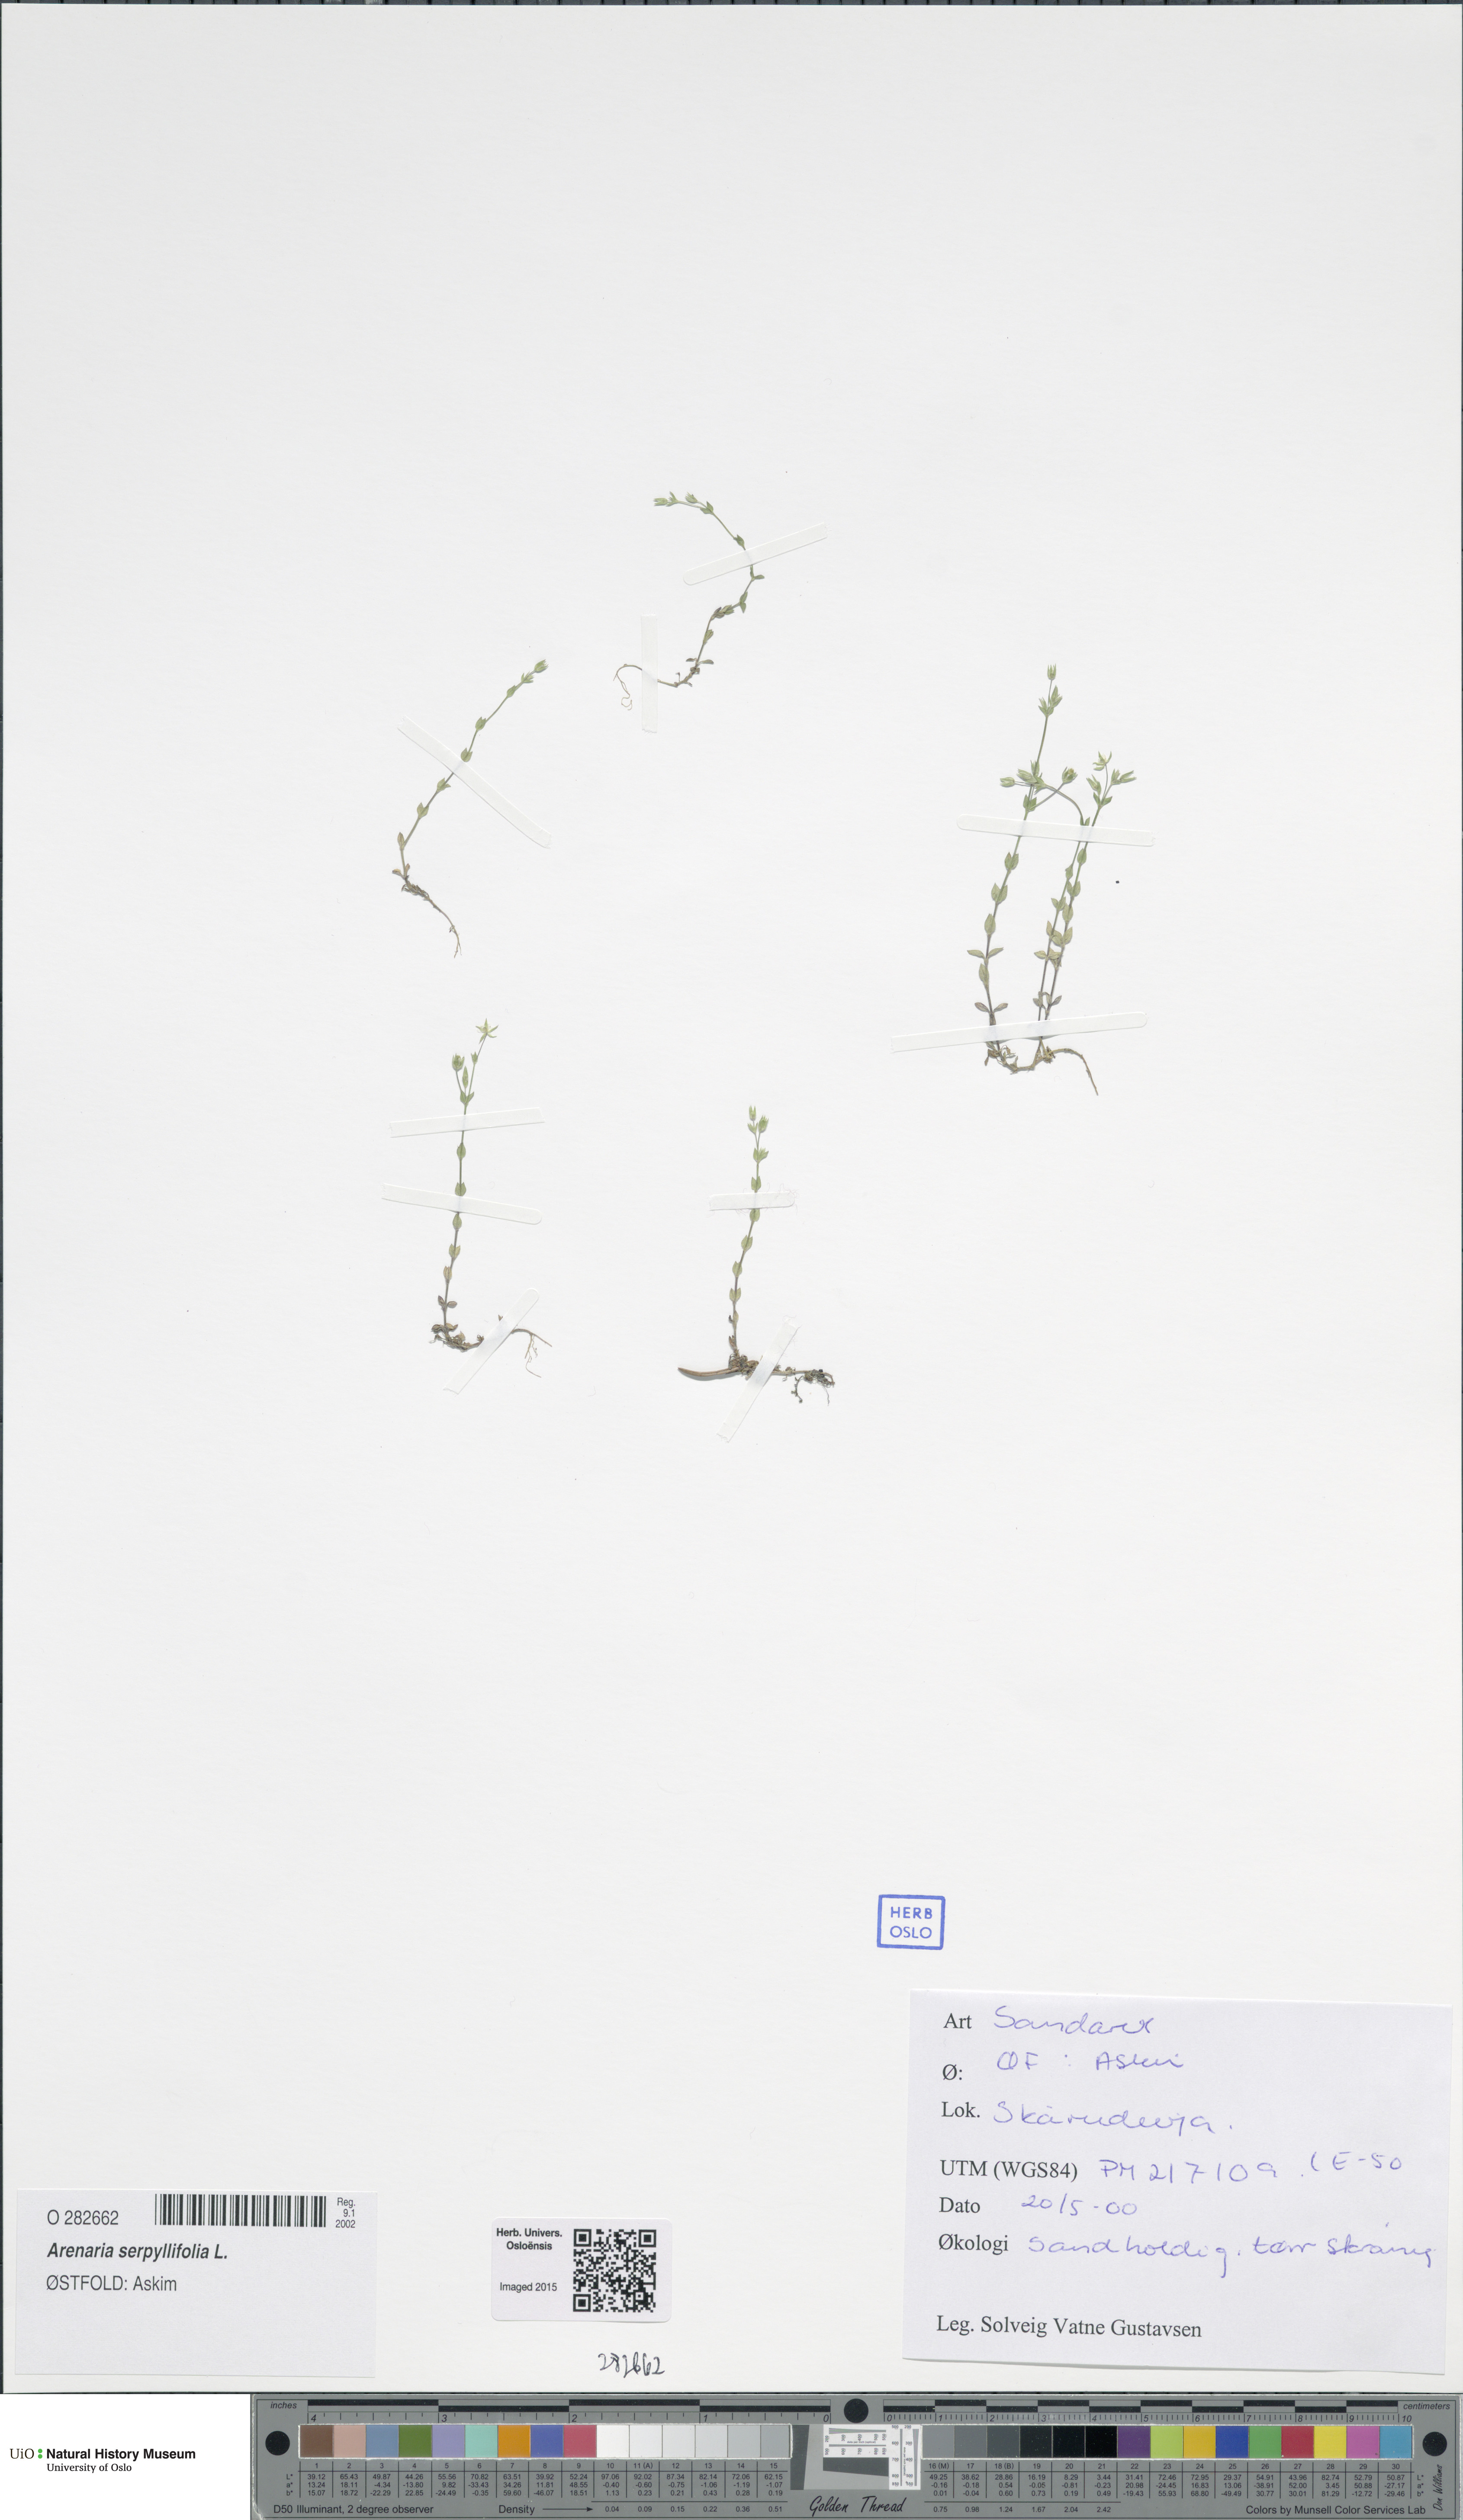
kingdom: Plantae
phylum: Tracheophyta
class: Magnoliopsida
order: Caryophyllales
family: Caryophyllaceae
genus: Arenaria
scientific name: Arenaria serpyllifolia
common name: Thyme-leaved sandwort
